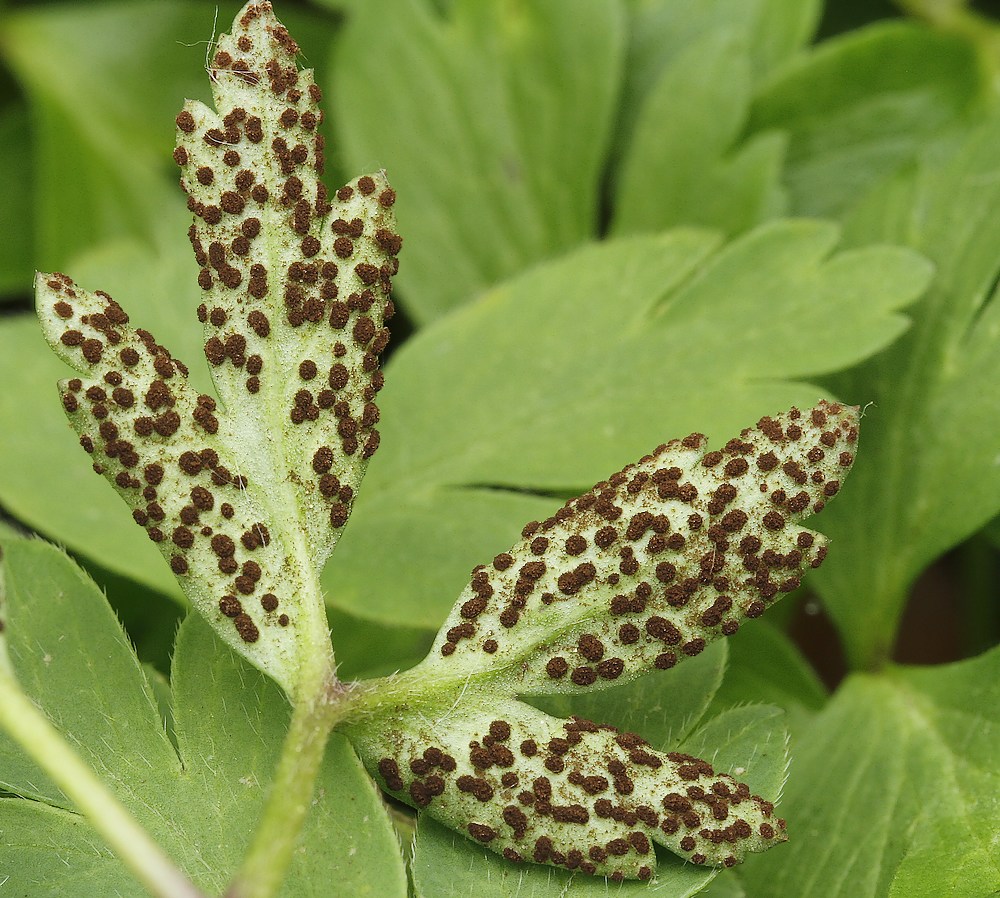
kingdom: Fungi
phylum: Basidiomycota
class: Pucciniomycetes
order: Pucciniales
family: Tranzscheliaceae
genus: Tranzschelia
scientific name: Tranzschelia anemones
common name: anemone-knæksporerust
